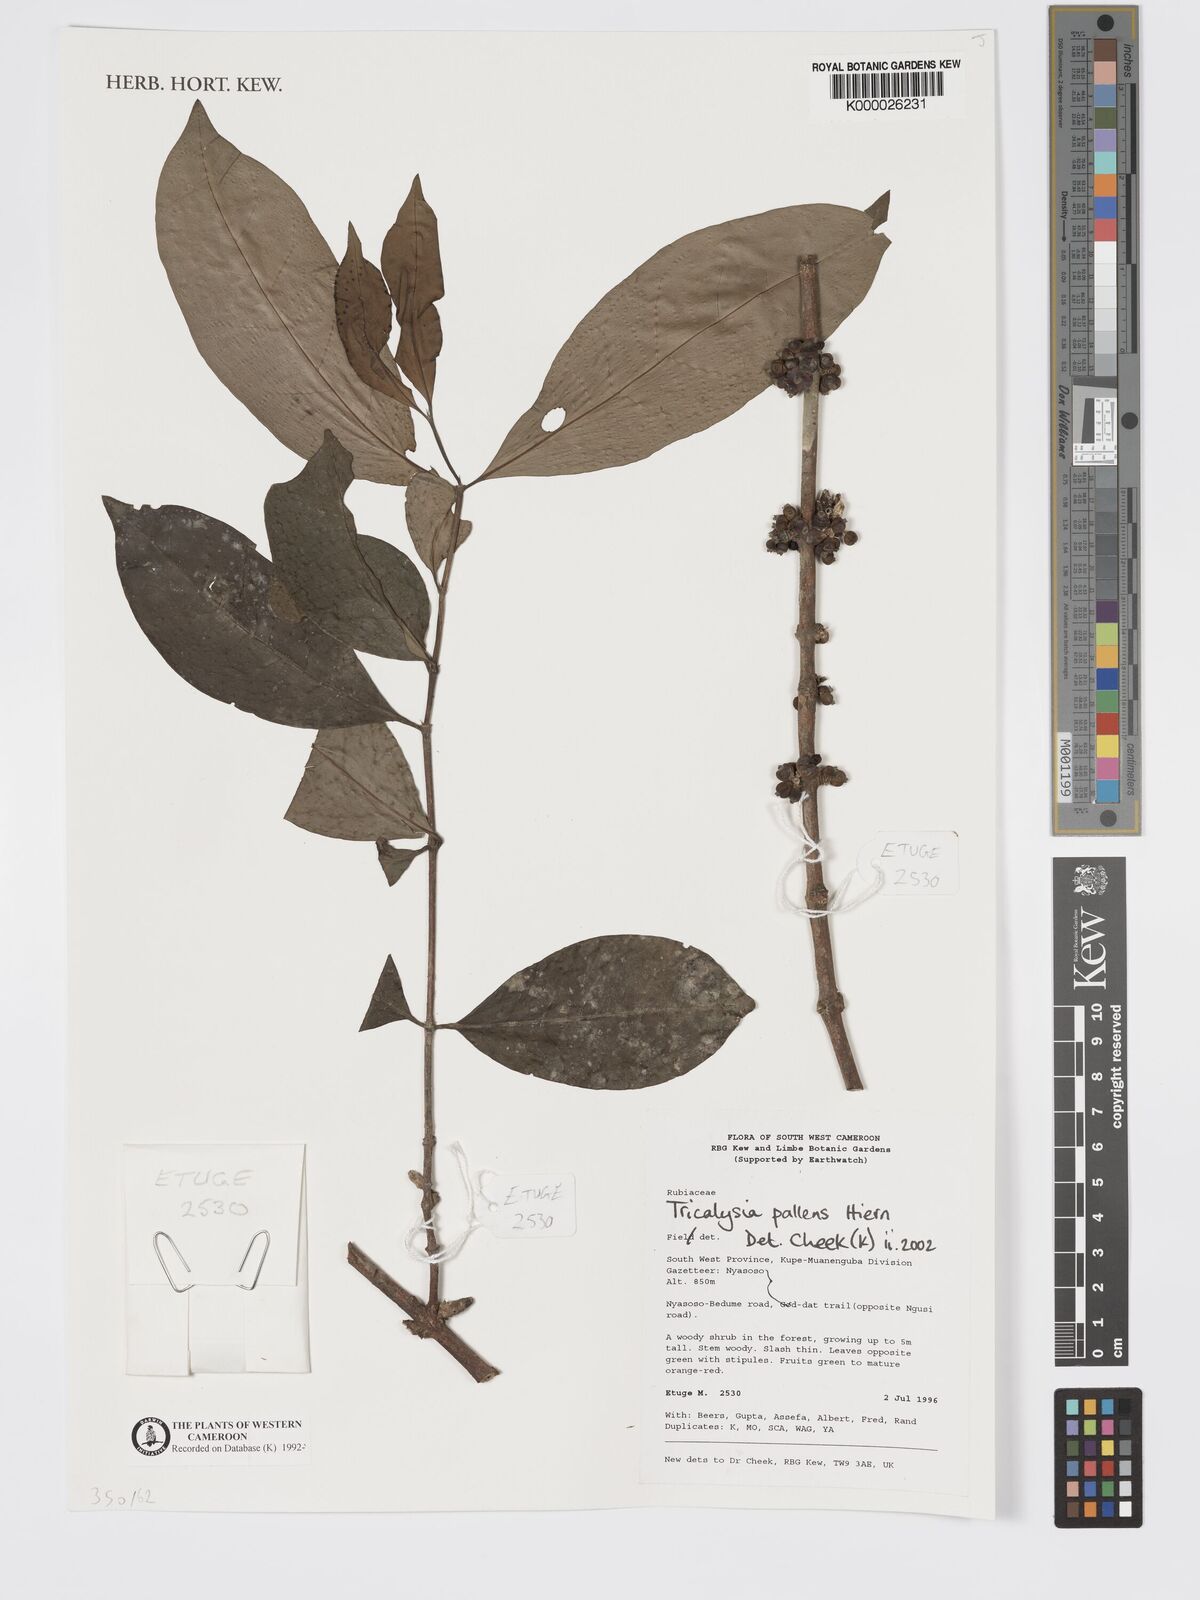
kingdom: Plantae
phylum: Tracheophyta
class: Magnoliopsida
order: Gentianales
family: Rubiaceae
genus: Tricalysia
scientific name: Tricalysia pallens
